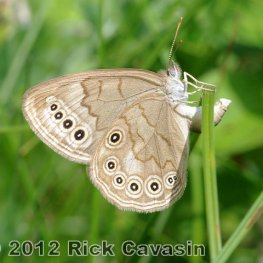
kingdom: Animalia
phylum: Arthropoda
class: Insecta
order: Lepidoptera
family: Nymphalidae
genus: Lethe
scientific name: Lethe eurydice
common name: Eyed Brown
